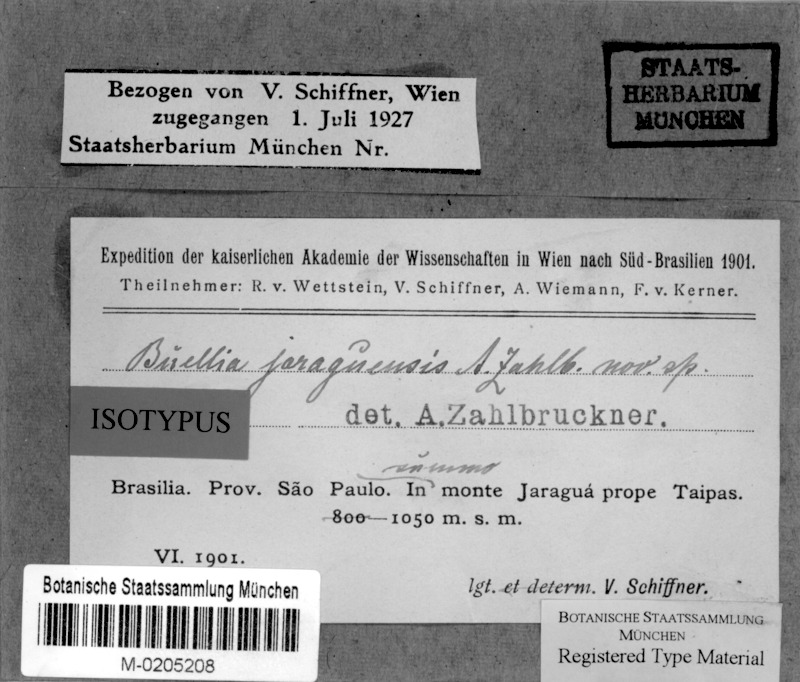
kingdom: Fungi
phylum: Ascomycota
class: Lecanoromycetes
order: Caliciales
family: Caliciaceae
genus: Buellia
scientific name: Buellia jaraguensis
